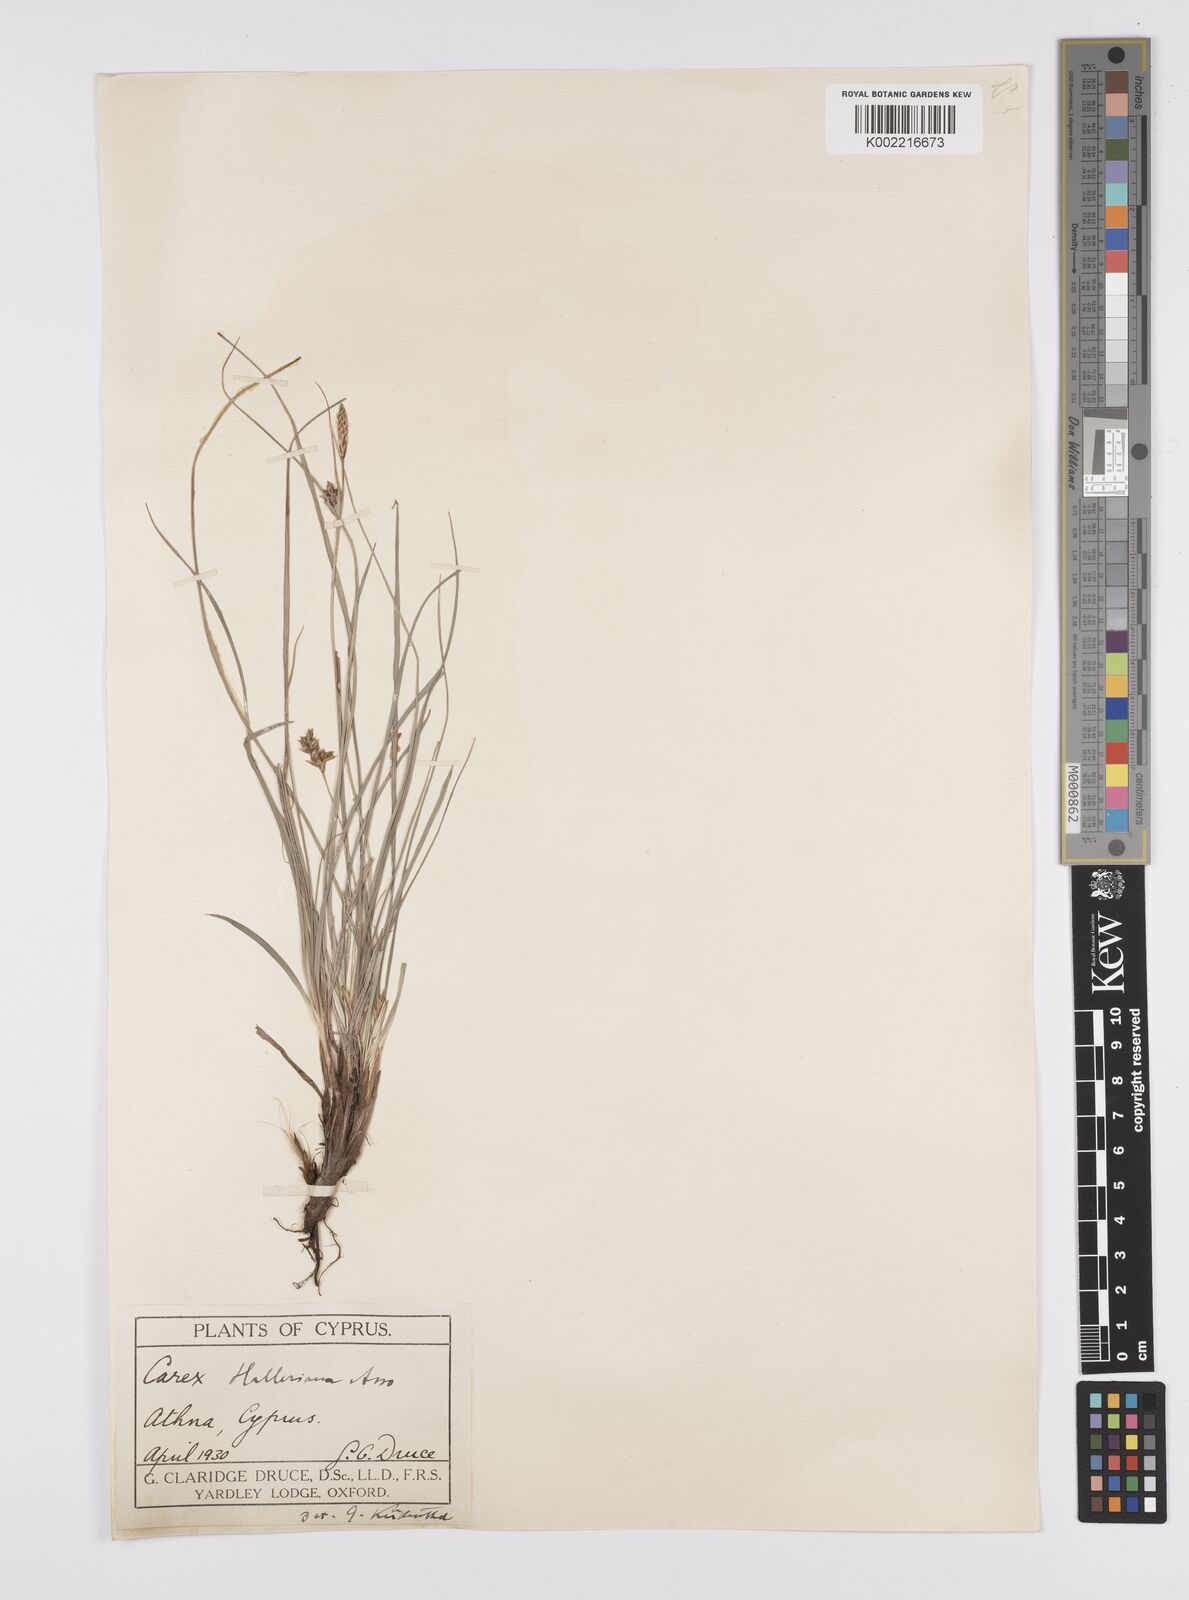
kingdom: Plantae
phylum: Tracheophyta
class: Liliopsida
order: Poales
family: Cyperaceae
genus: Carex
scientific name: Carex halleriana
